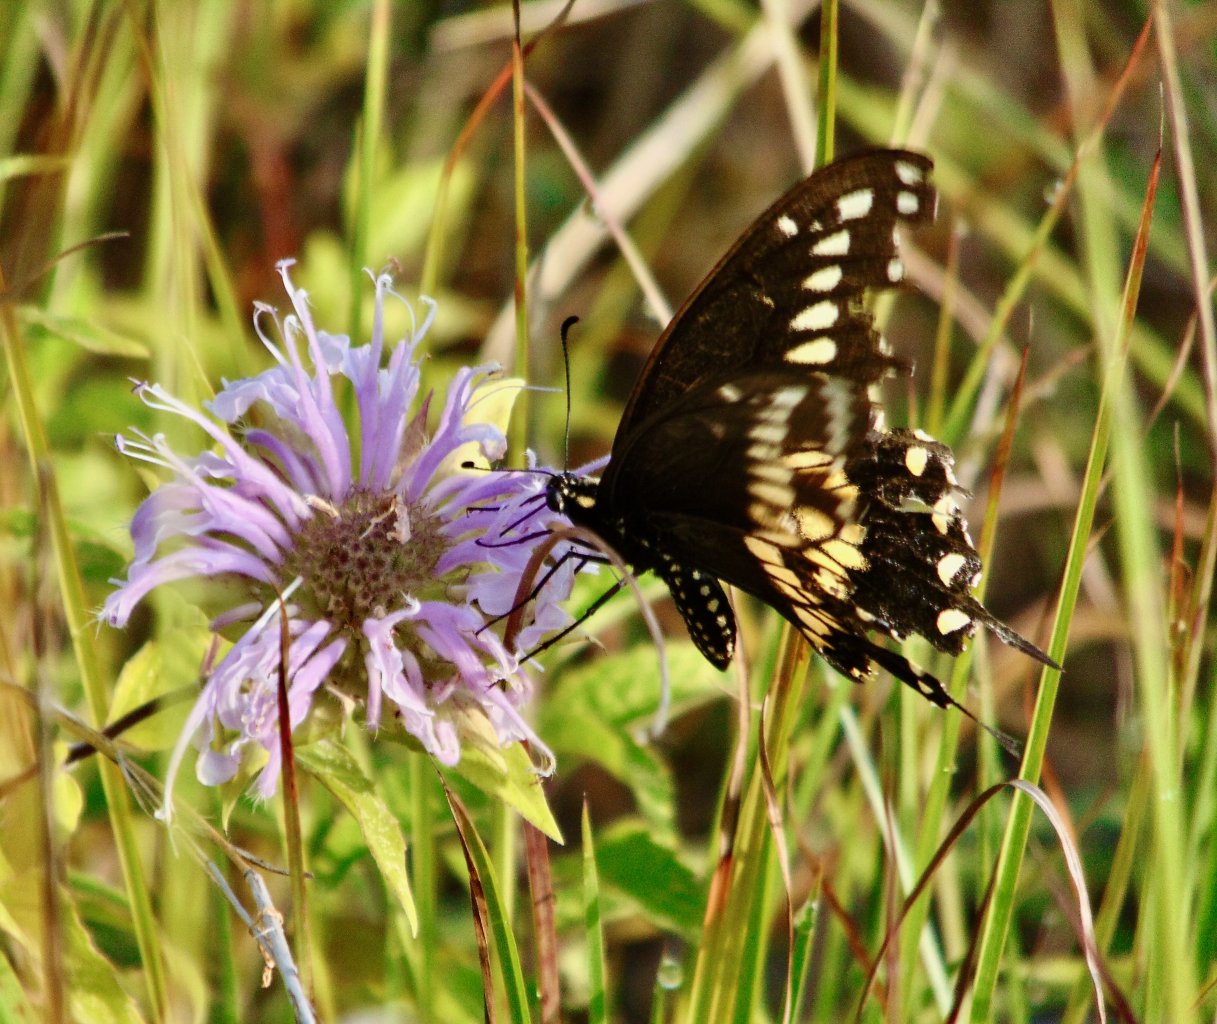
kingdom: Animalia
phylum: Arthropoda
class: Insecta
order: Lepidoptera
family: Papilionidae
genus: Papilio
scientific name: Papilio polyxenes
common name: Black Swallowtail
